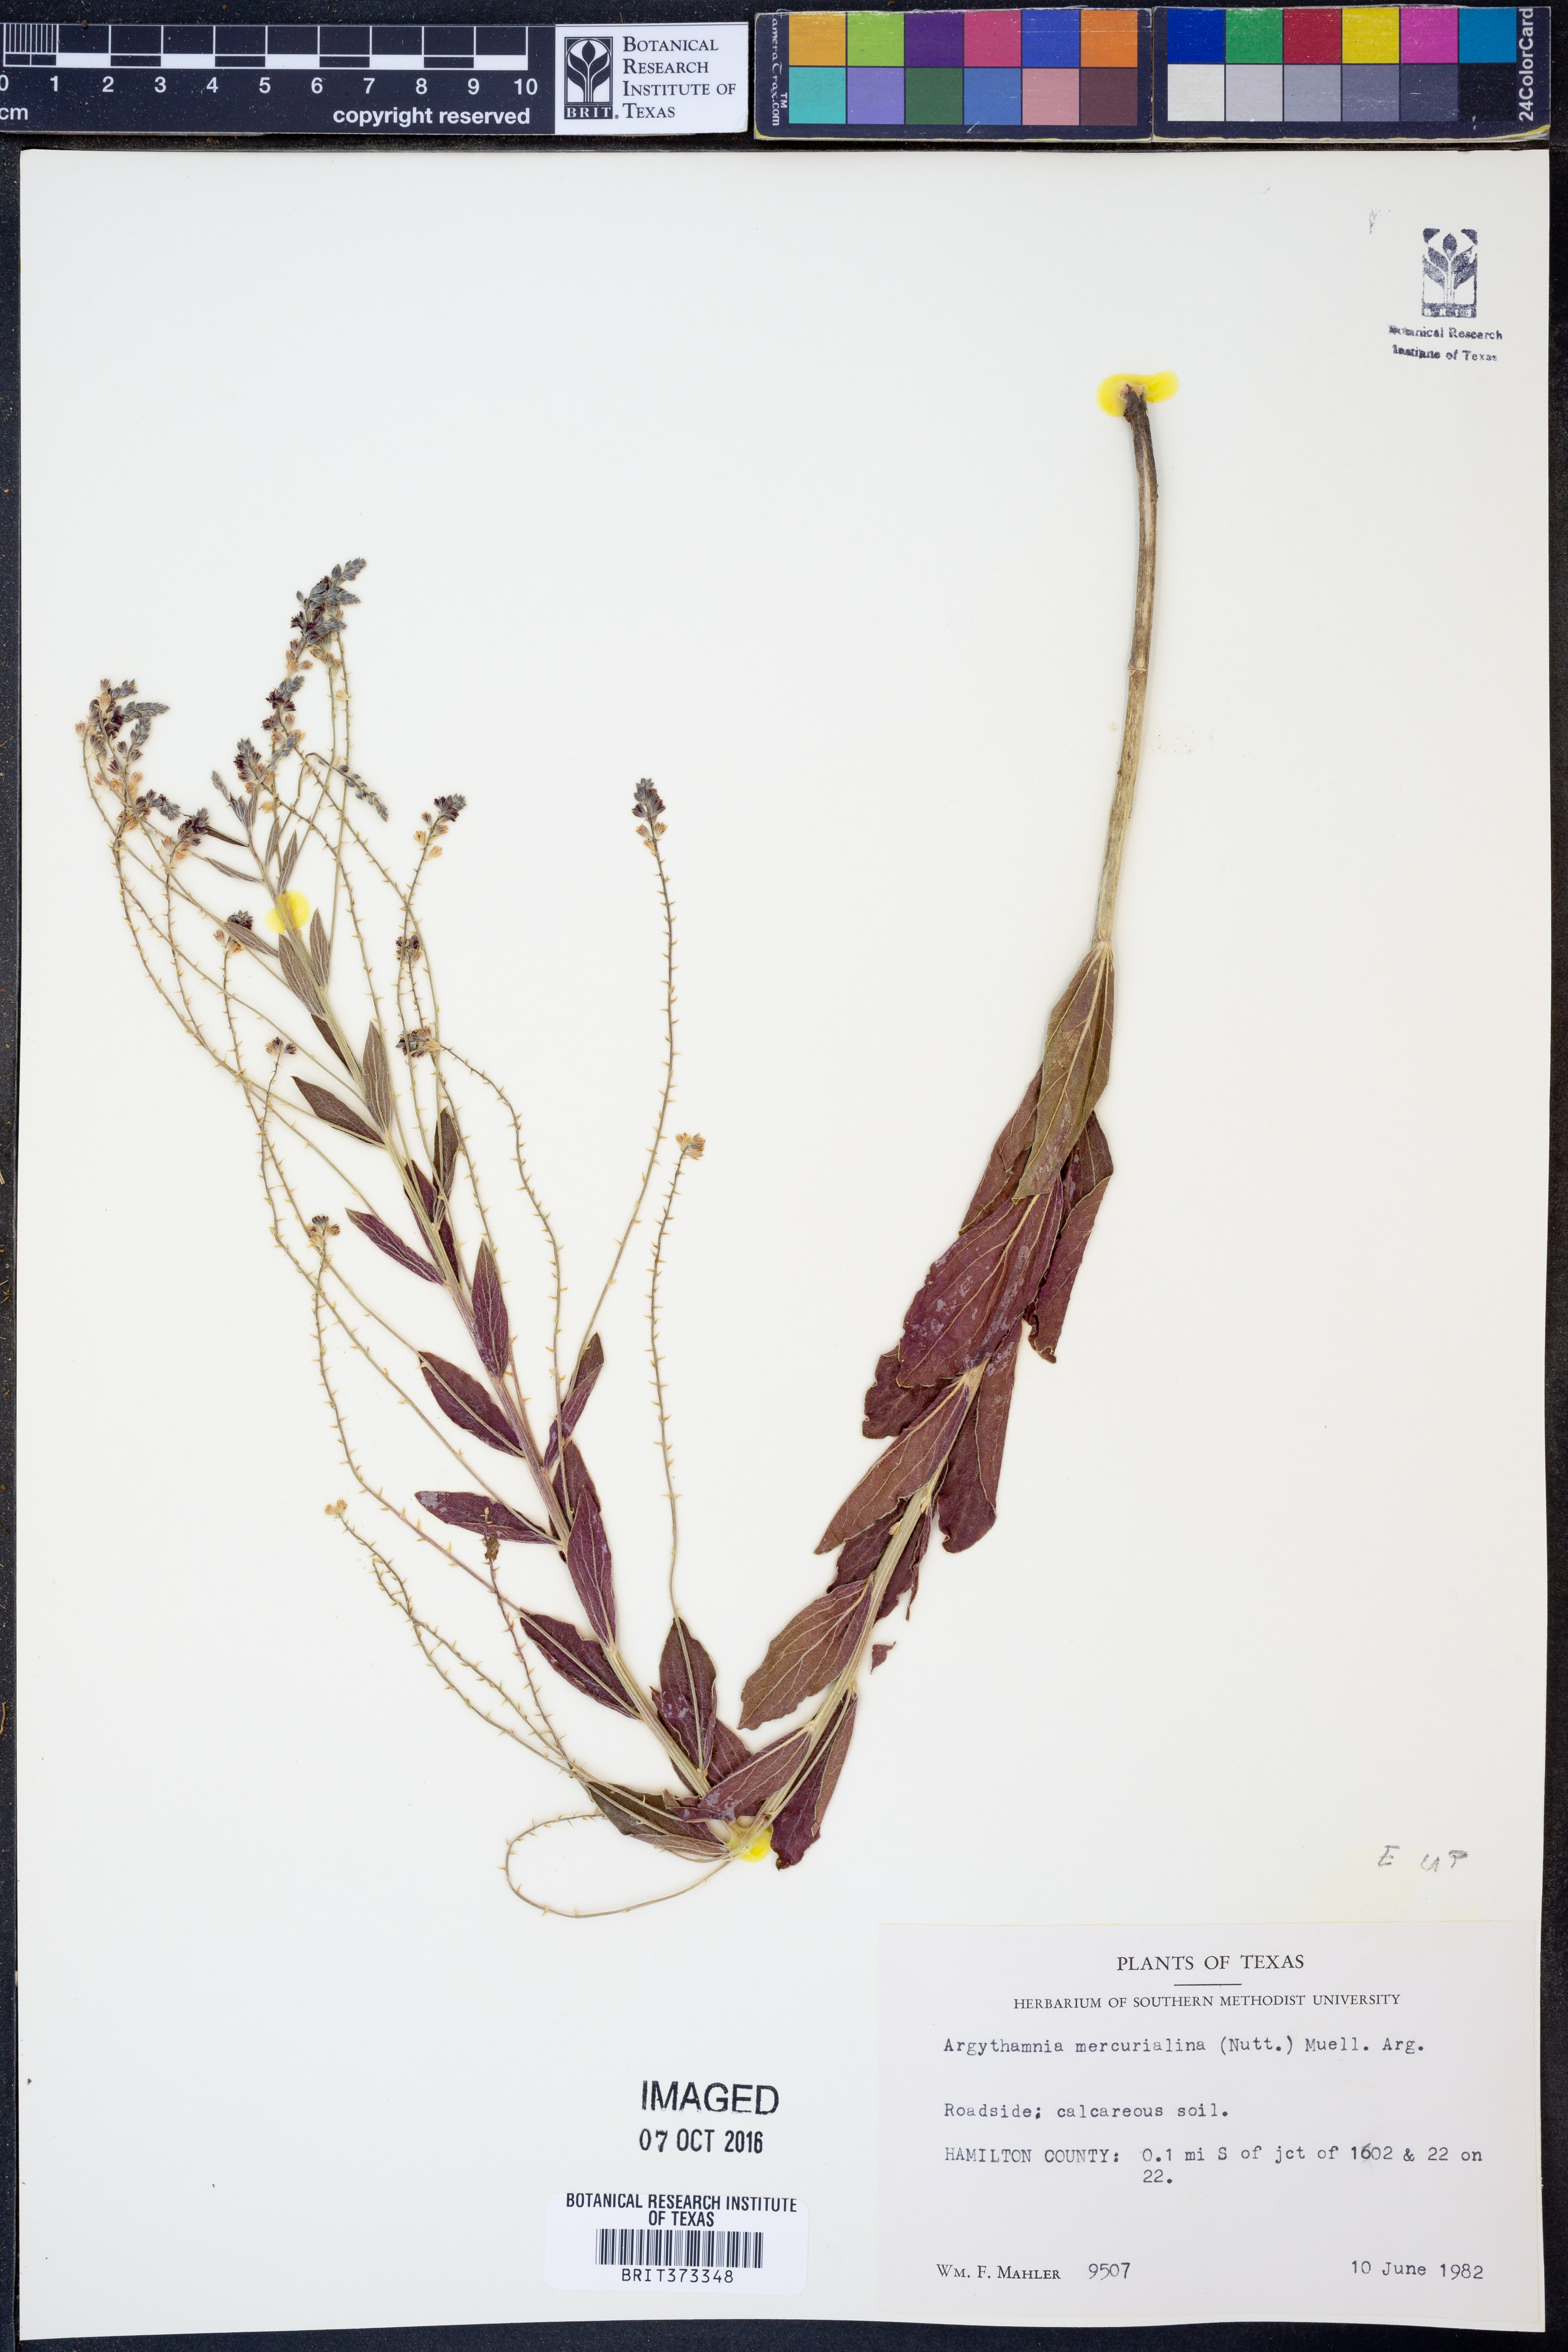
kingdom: Plantae
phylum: Tracheophyta
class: Magnoliopsida
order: Malpighiales
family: Euphorbiaceae
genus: Ditaxis
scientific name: Ditaxis mercurialina
